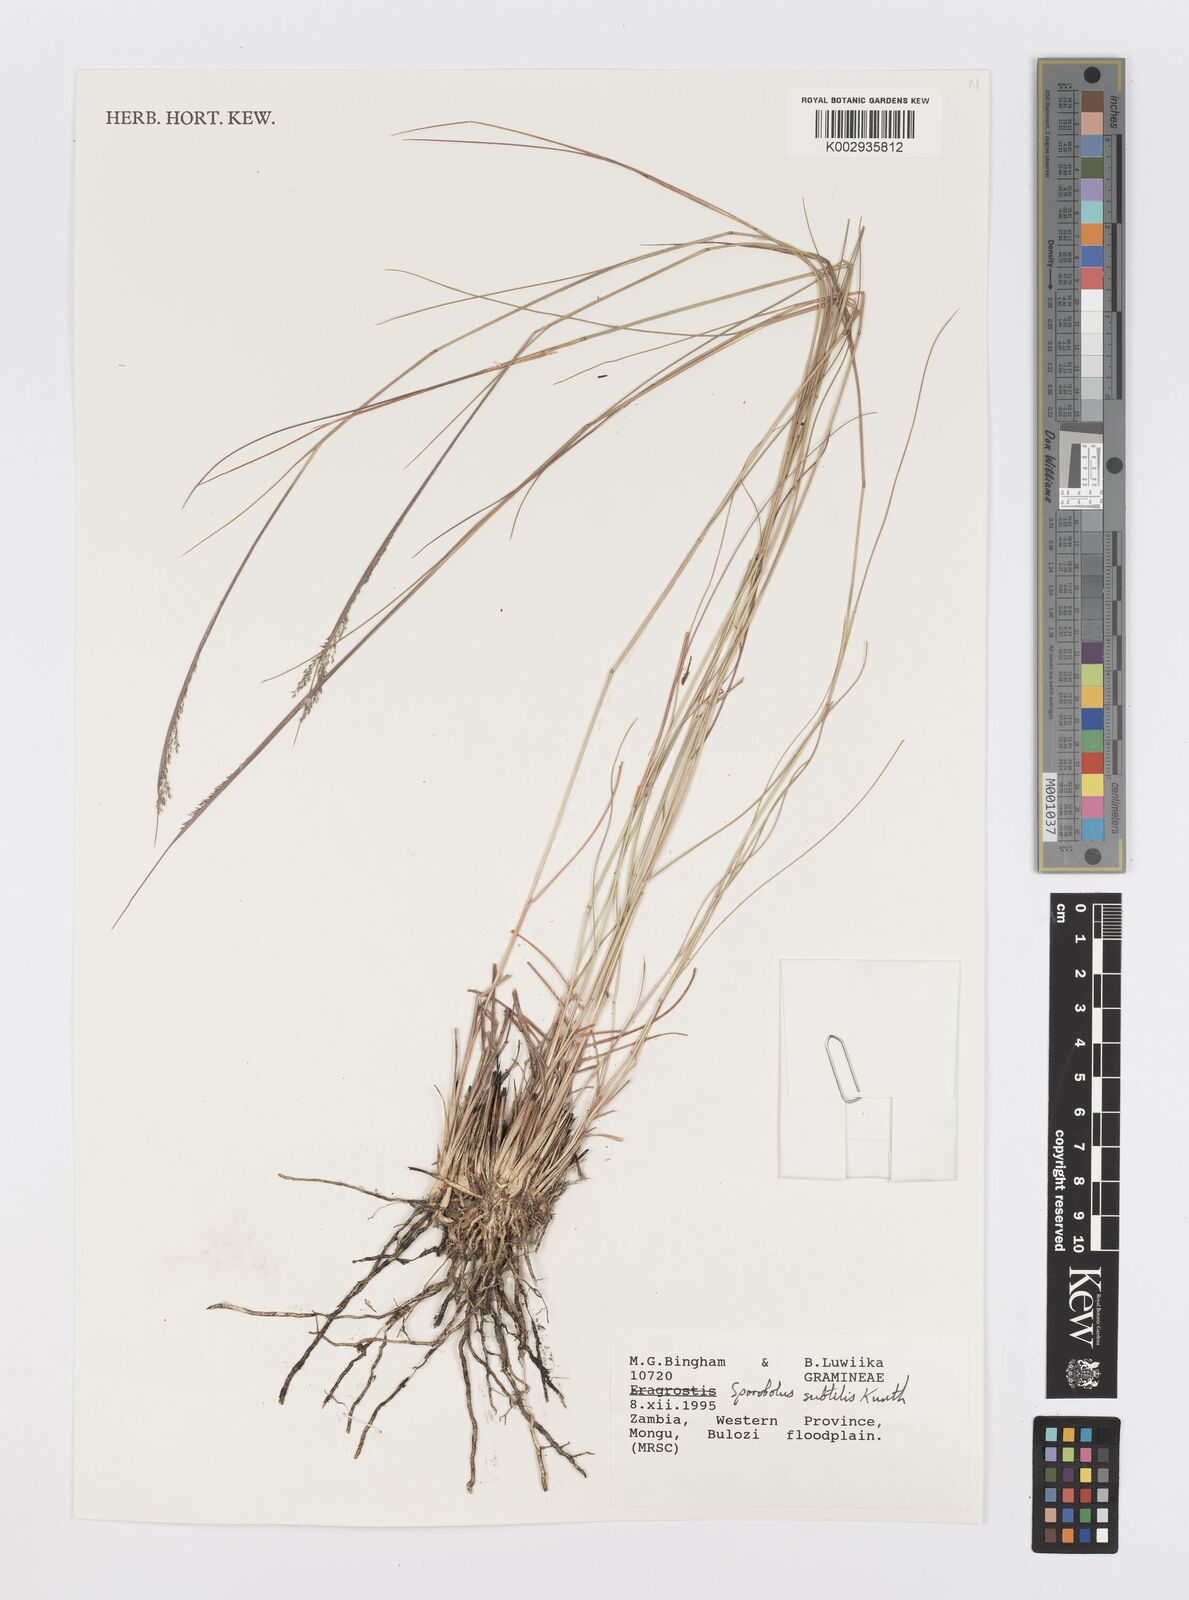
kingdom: Plantae
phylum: Tracheophyta
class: Liliopsida
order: Poales
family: Poaceae
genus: Sporobolus
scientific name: Sporobolus subtilis
